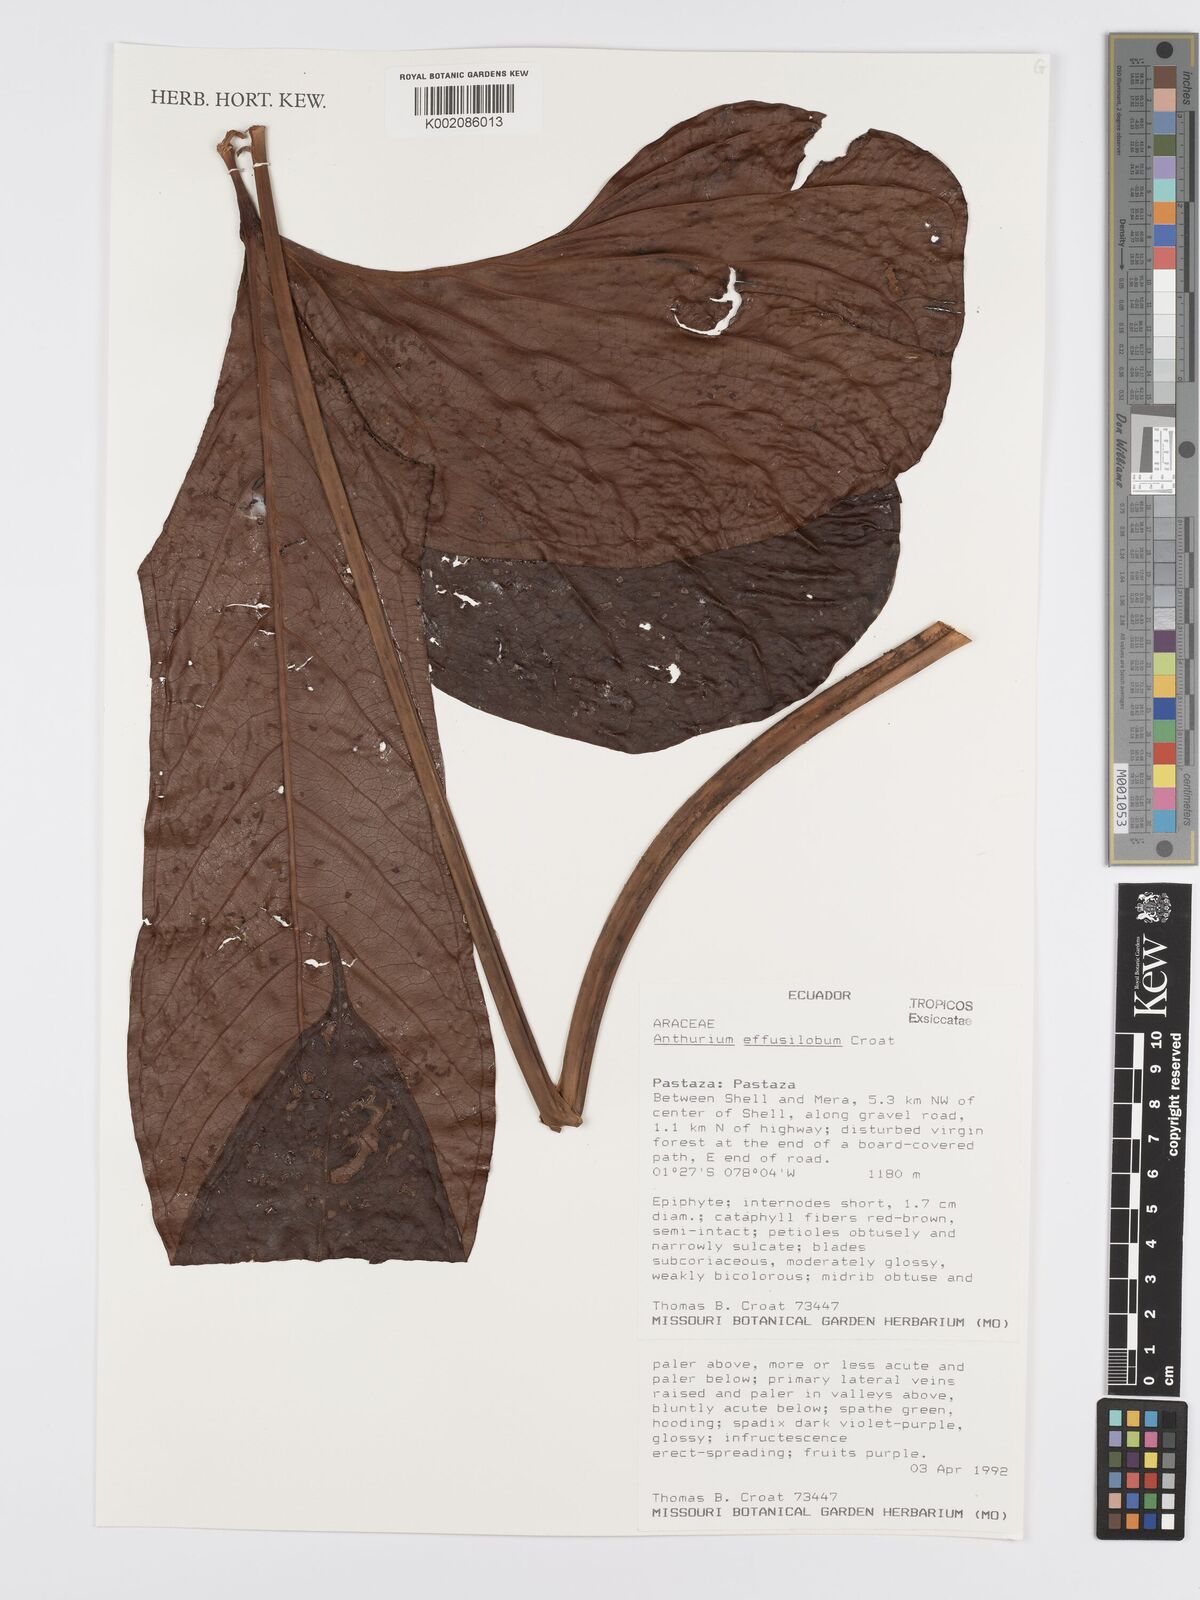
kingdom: Plantae
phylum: Tracheophyta
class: Liliopsida
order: Alismatales
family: Araceae
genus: Anthurium
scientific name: Anthurium effusilobum
